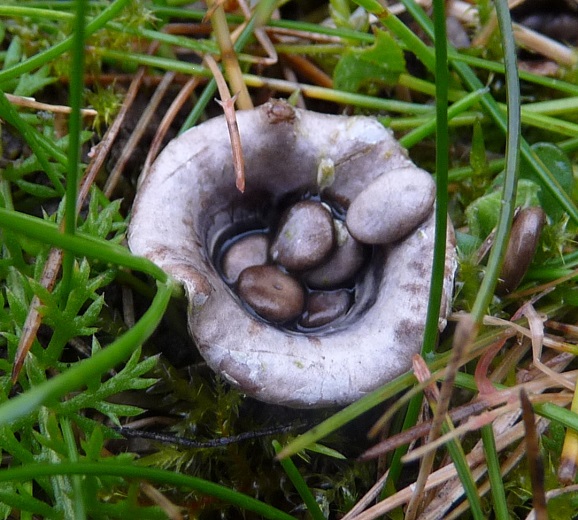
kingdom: Fungi
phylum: Basidiomycota
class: Agaricomycetes
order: Agaricales
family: Agaricaceae
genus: Cyathus
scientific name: Cyathus olla
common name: klokke-redesvamp
